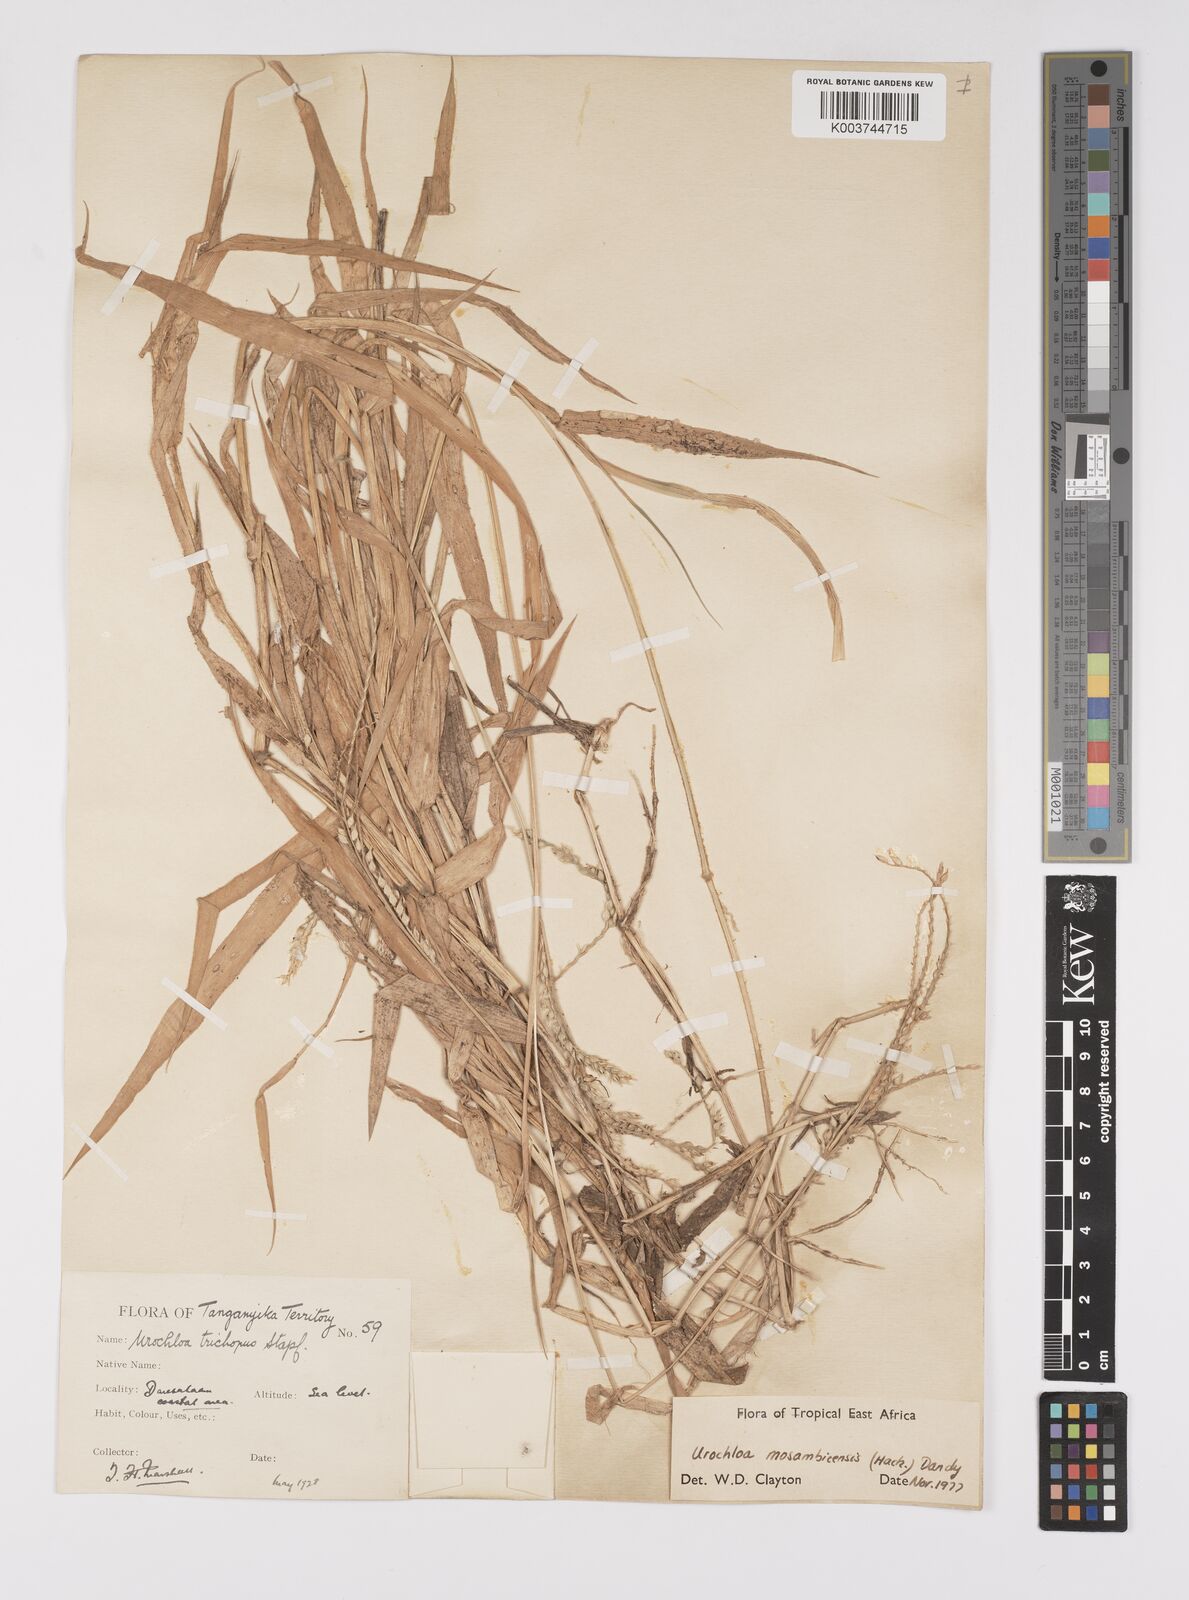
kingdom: Plantae
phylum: Tracheophyta
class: Liliopsida
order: Poales
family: Poaceae
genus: Urochloa
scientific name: Urochloa trichopus
